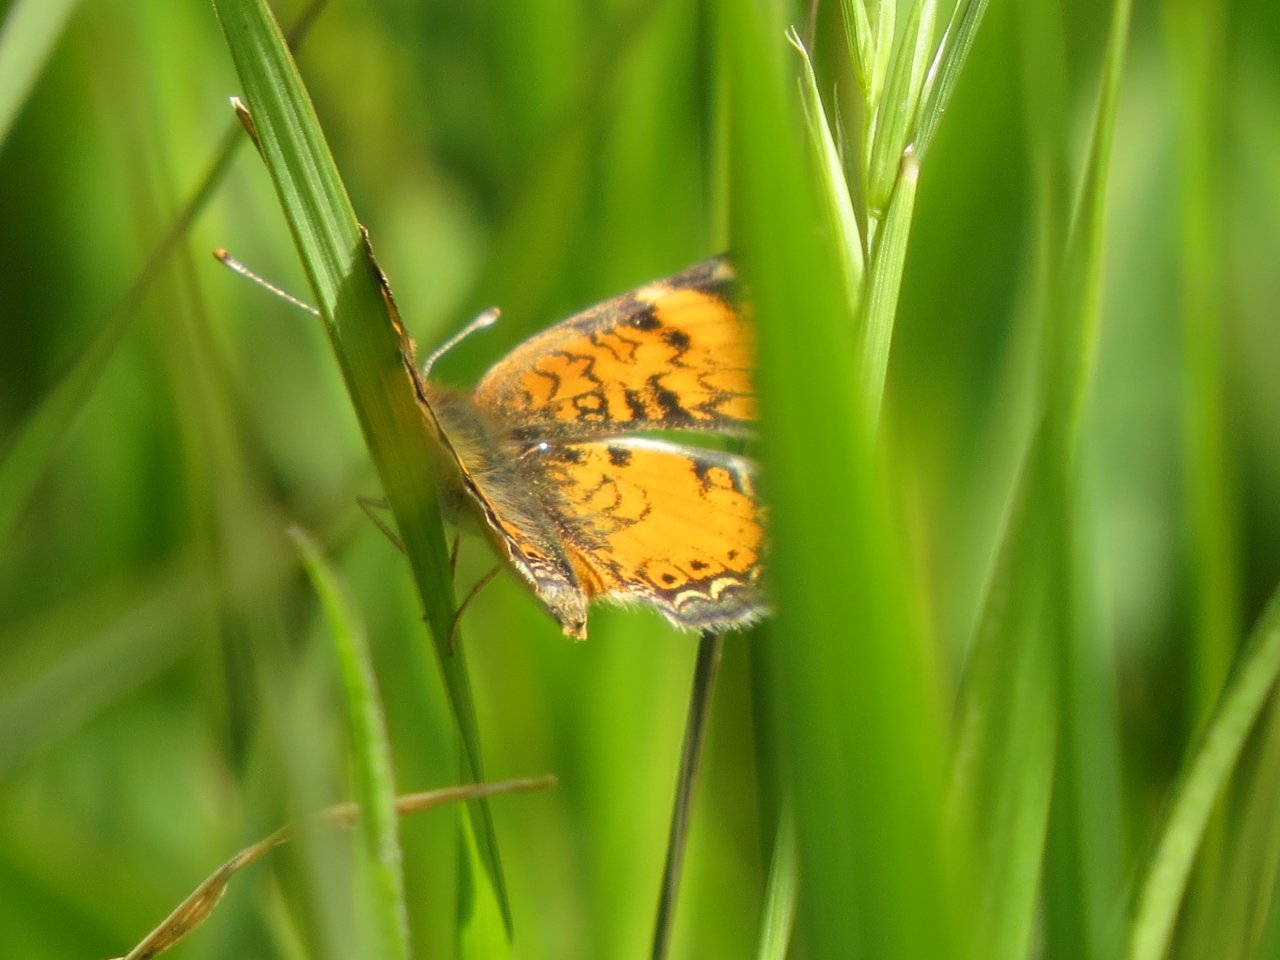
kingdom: Animalia
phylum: Arthropoda
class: Insecta
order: Lepidoptera
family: Nymphalidae
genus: Phyciodes
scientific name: Phyciodes tharos
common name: Northern Crescent
